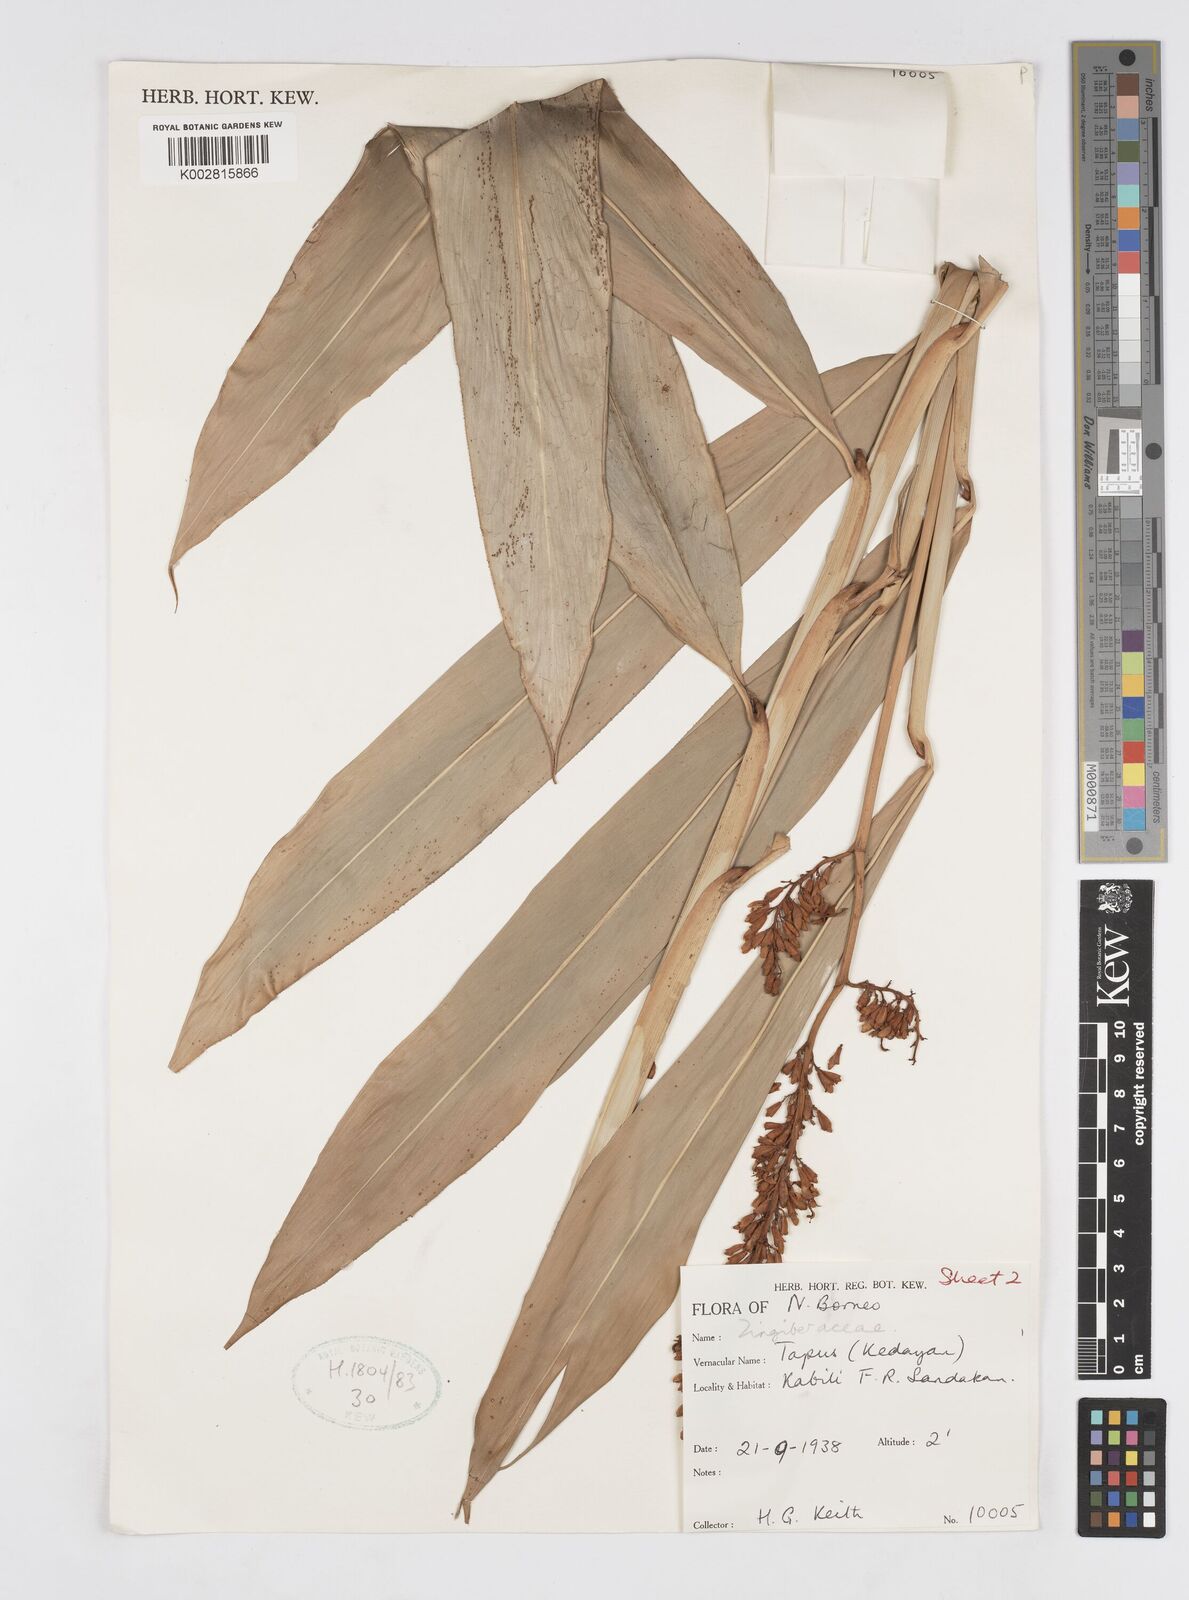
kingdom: Plantae
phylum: Tracheophyta
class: Liliopsida
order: Zingiberales
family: Zingiberaceae
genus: Alpinia
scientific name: Alpinia aquatica
